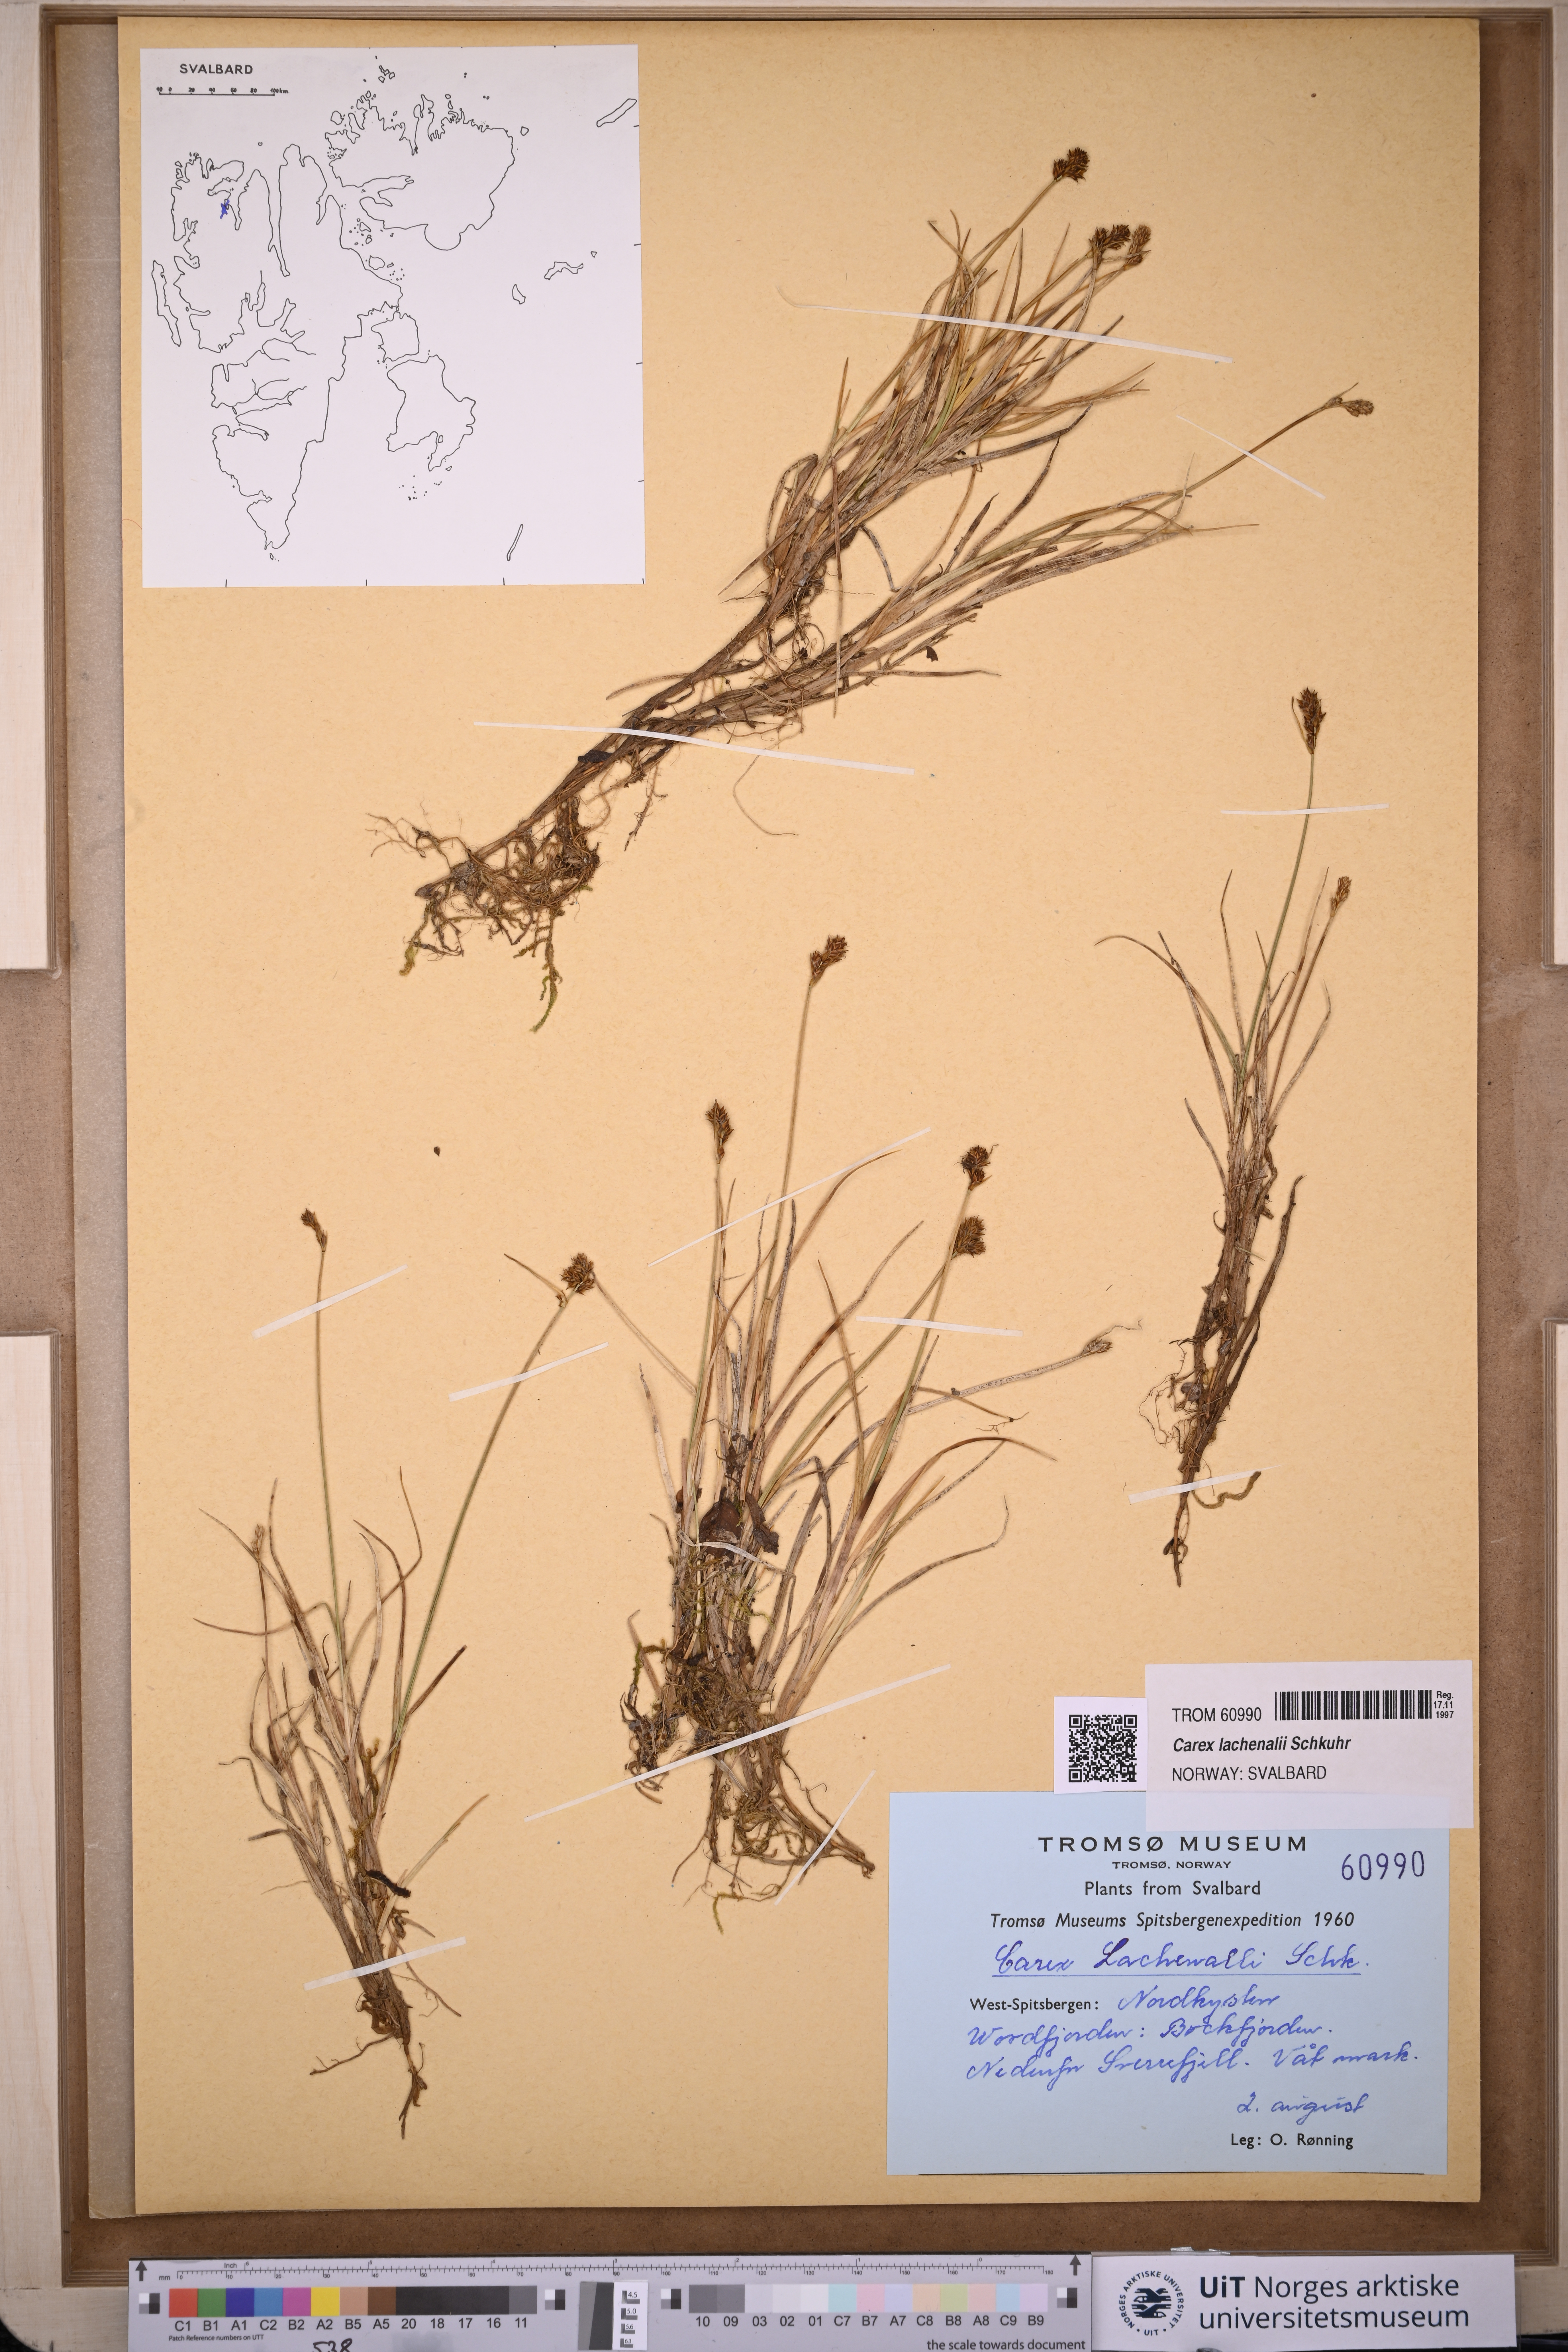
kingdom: Plantae
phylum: Tracheophyta
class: Liliopsida
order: Poales
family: Cyperaceae
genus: Carex
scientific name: Carex lachenalii
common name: Hare's-foot sedge
